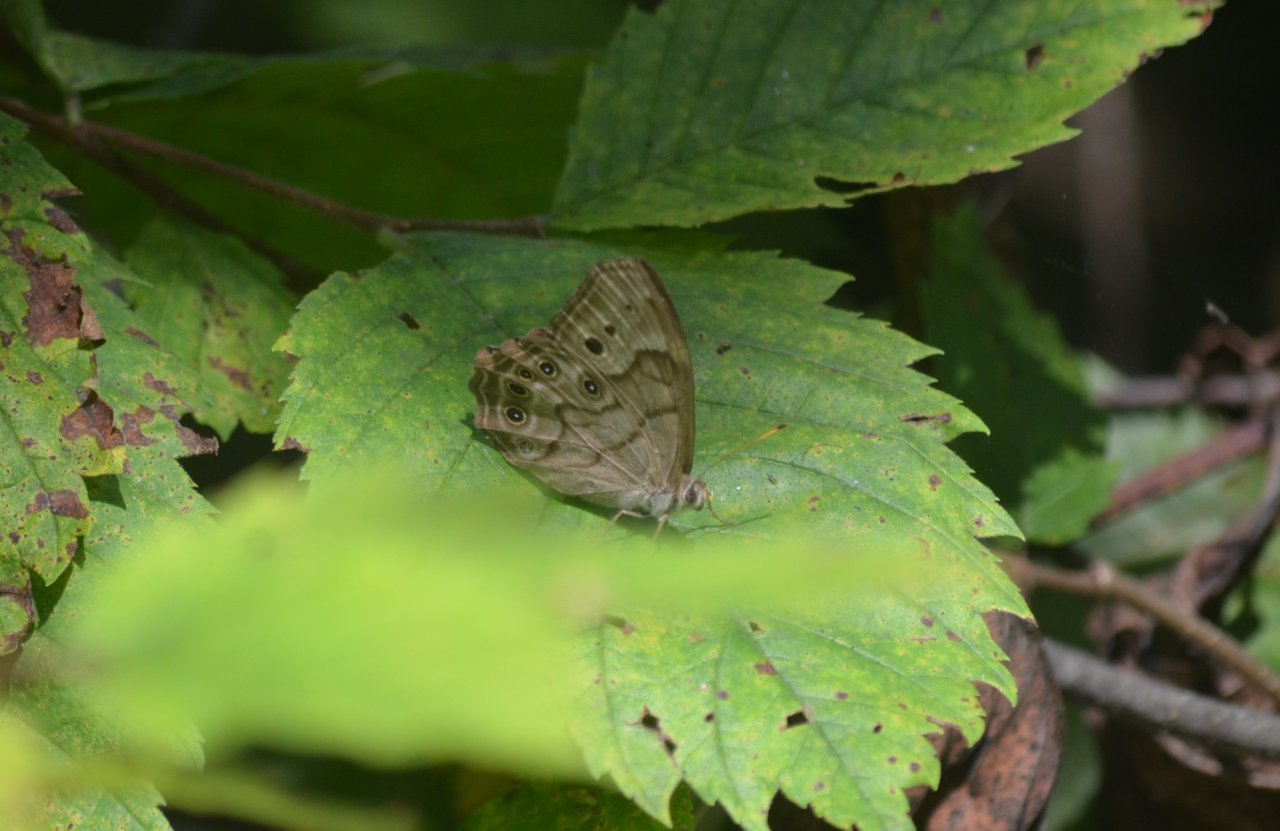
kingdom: Animalia
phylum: Arthropoda
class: Insecta
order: Lepidoptera
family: Nymphalidae
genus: Lethe
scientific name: Lethe anthedon
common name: Northern Pearly-Eye
